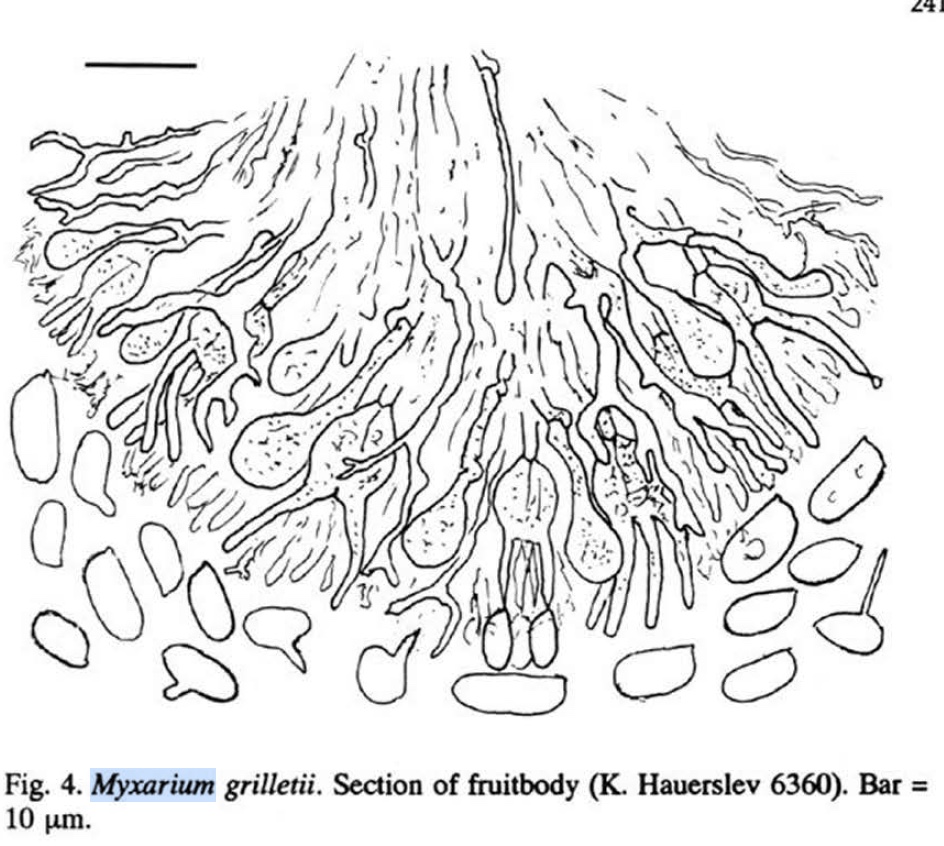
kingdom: Fungi
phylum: Basidiomycota
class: Agaricomycetes
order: Auriculariales
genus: Stypella
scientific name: Stypella grilletii
